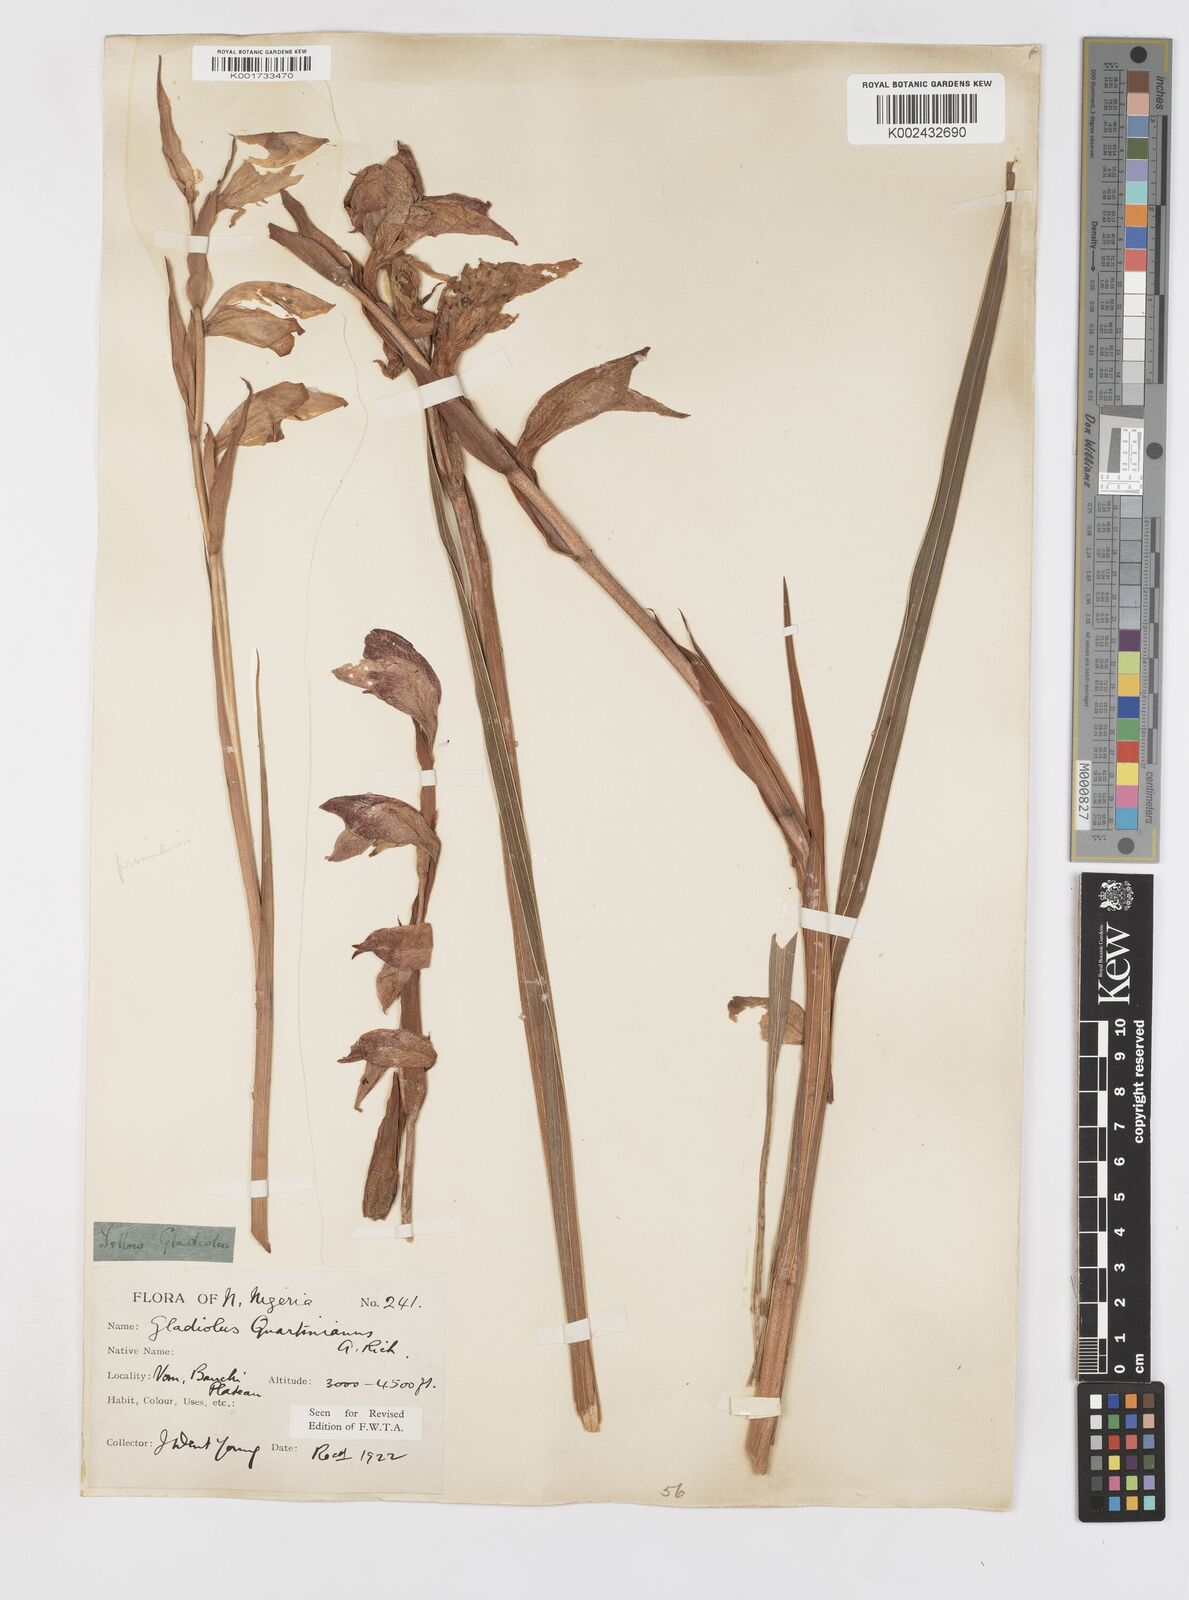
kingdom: Plantae
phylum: Tracheophyta
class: Liliopsida
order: Asparagales
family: Iridaceae
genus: Gladiolus
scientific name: Gladiolus dalenii
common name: Cornflag
